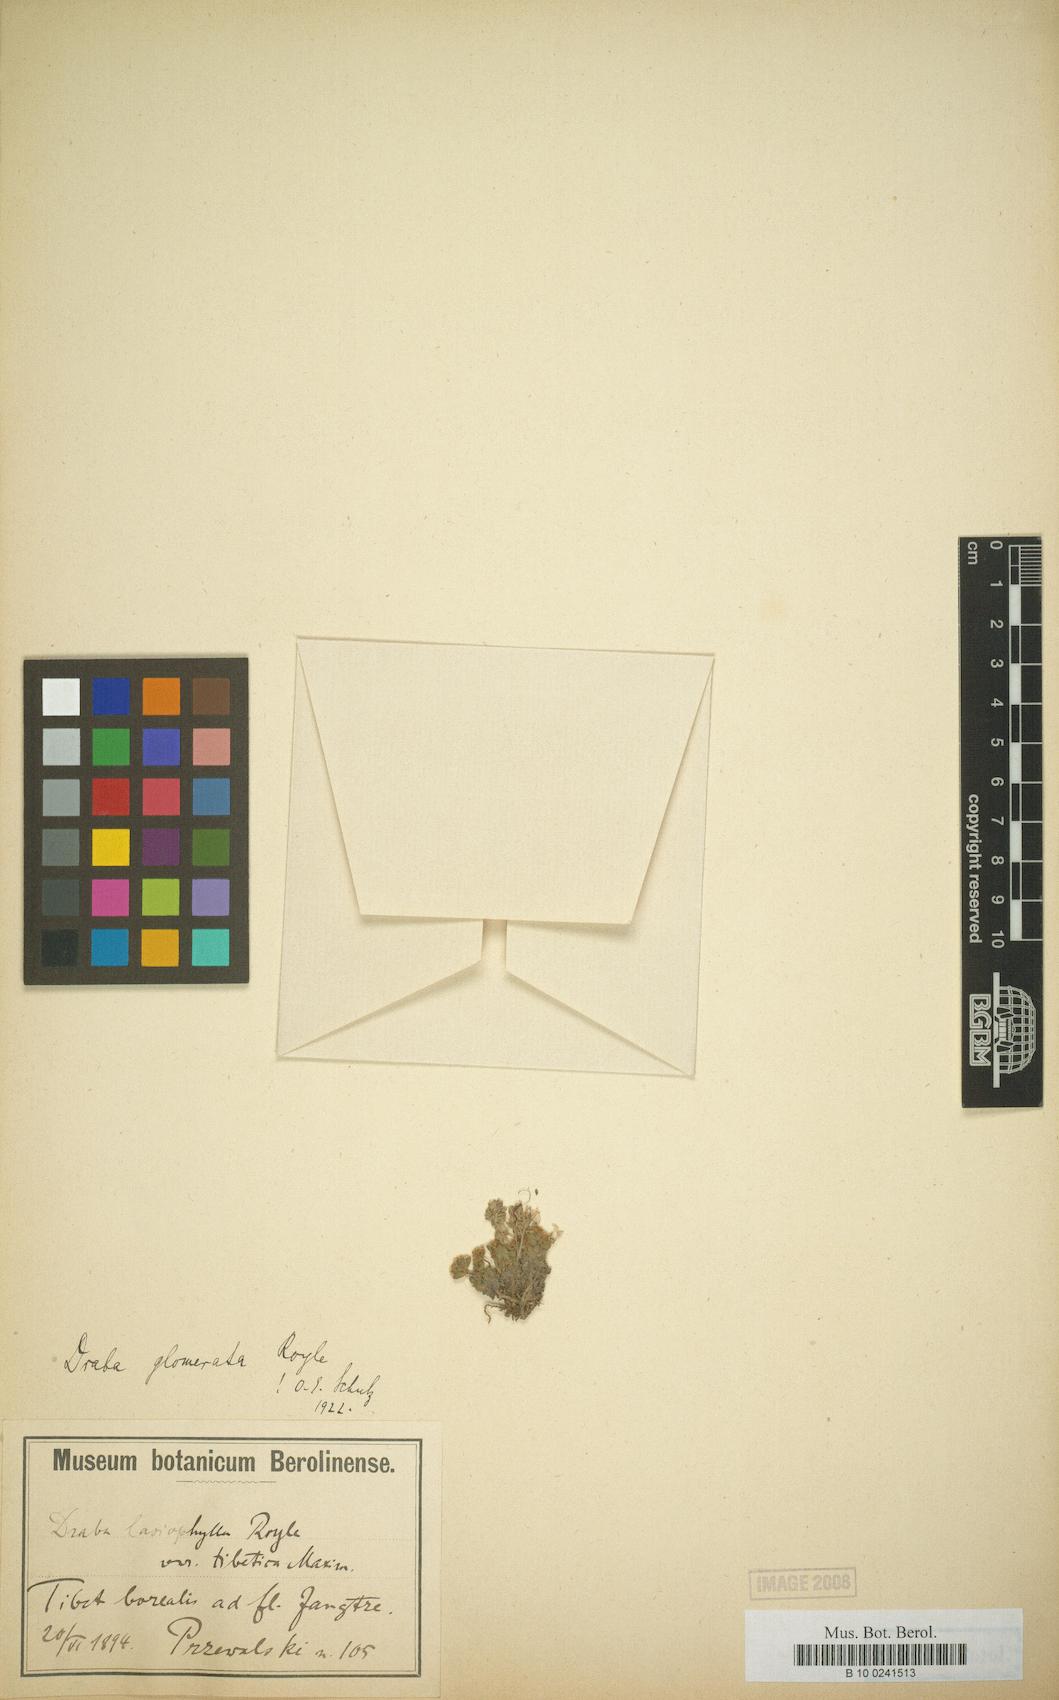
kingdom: Plantae
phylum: Tracheophyta
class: Magnoliopsida
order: Brassicales
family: Brassicaceae
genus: Draba
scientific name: Draba glomerata
